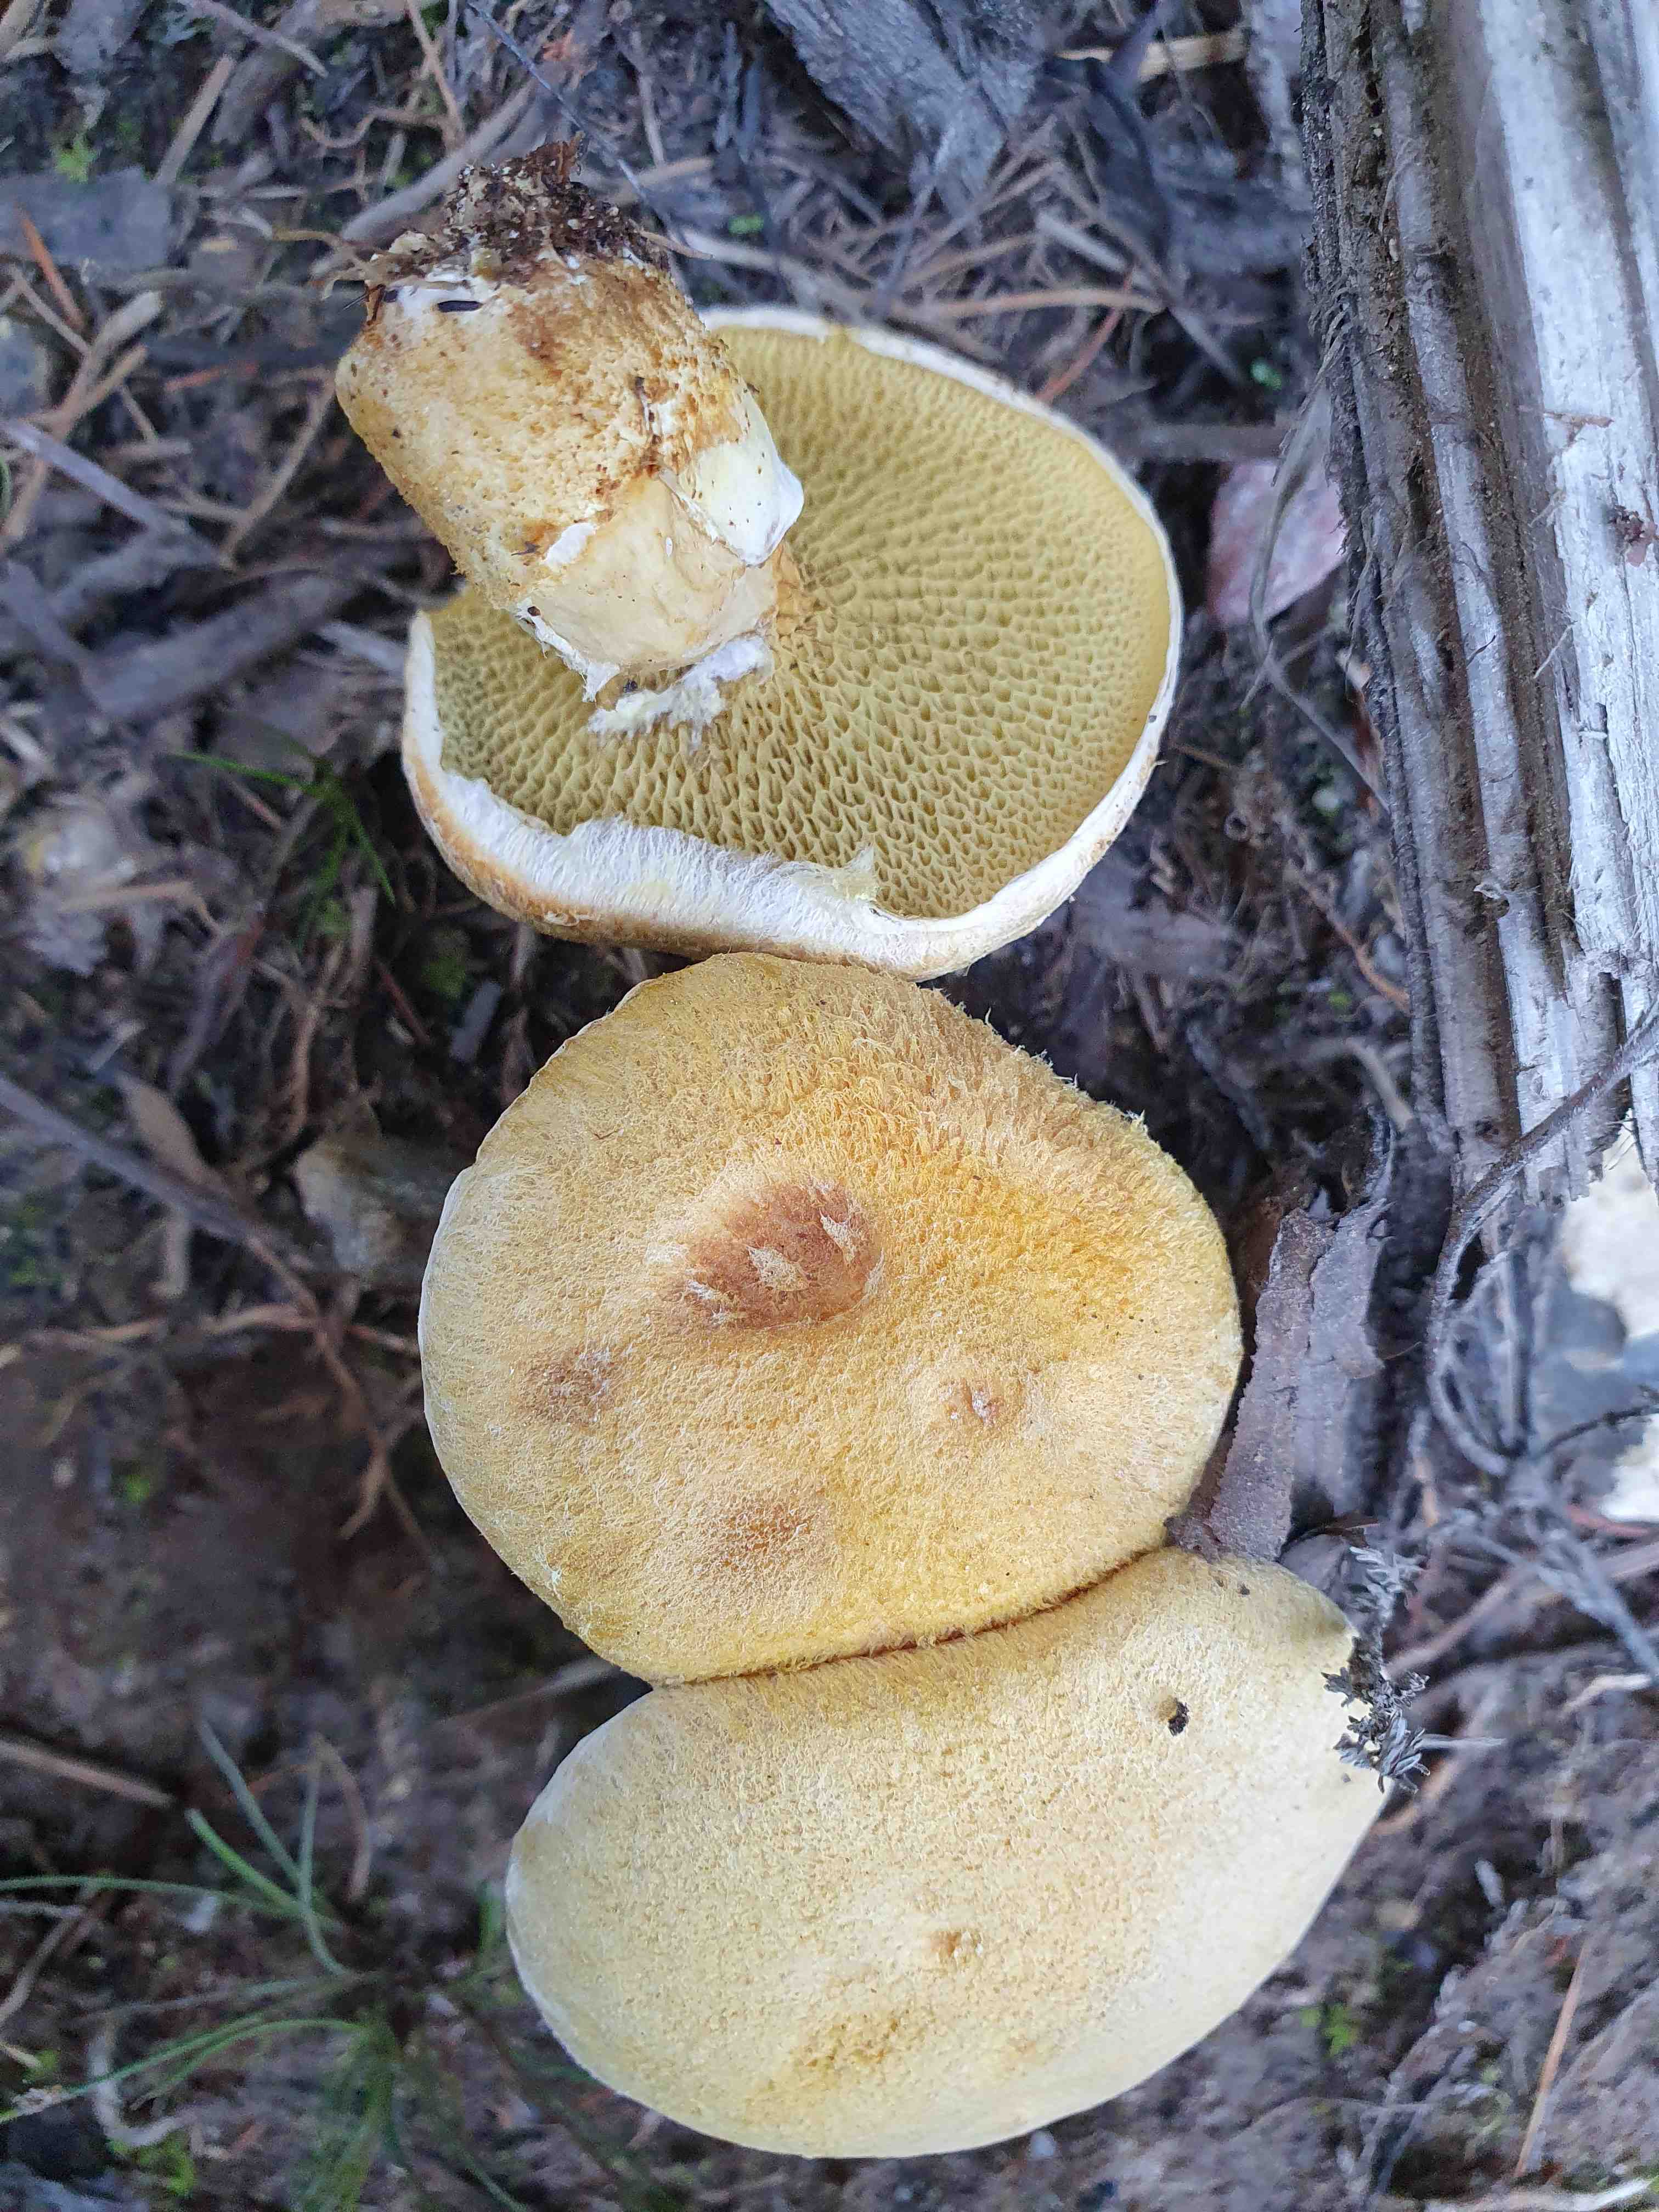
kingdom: Fungi
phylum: Basidiomycota
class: Agaricomycetes
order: Boletales
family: Suillaceae
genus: Suillus
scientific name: Suillus cavipes
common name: hulstokket slimrørhat, gul form
